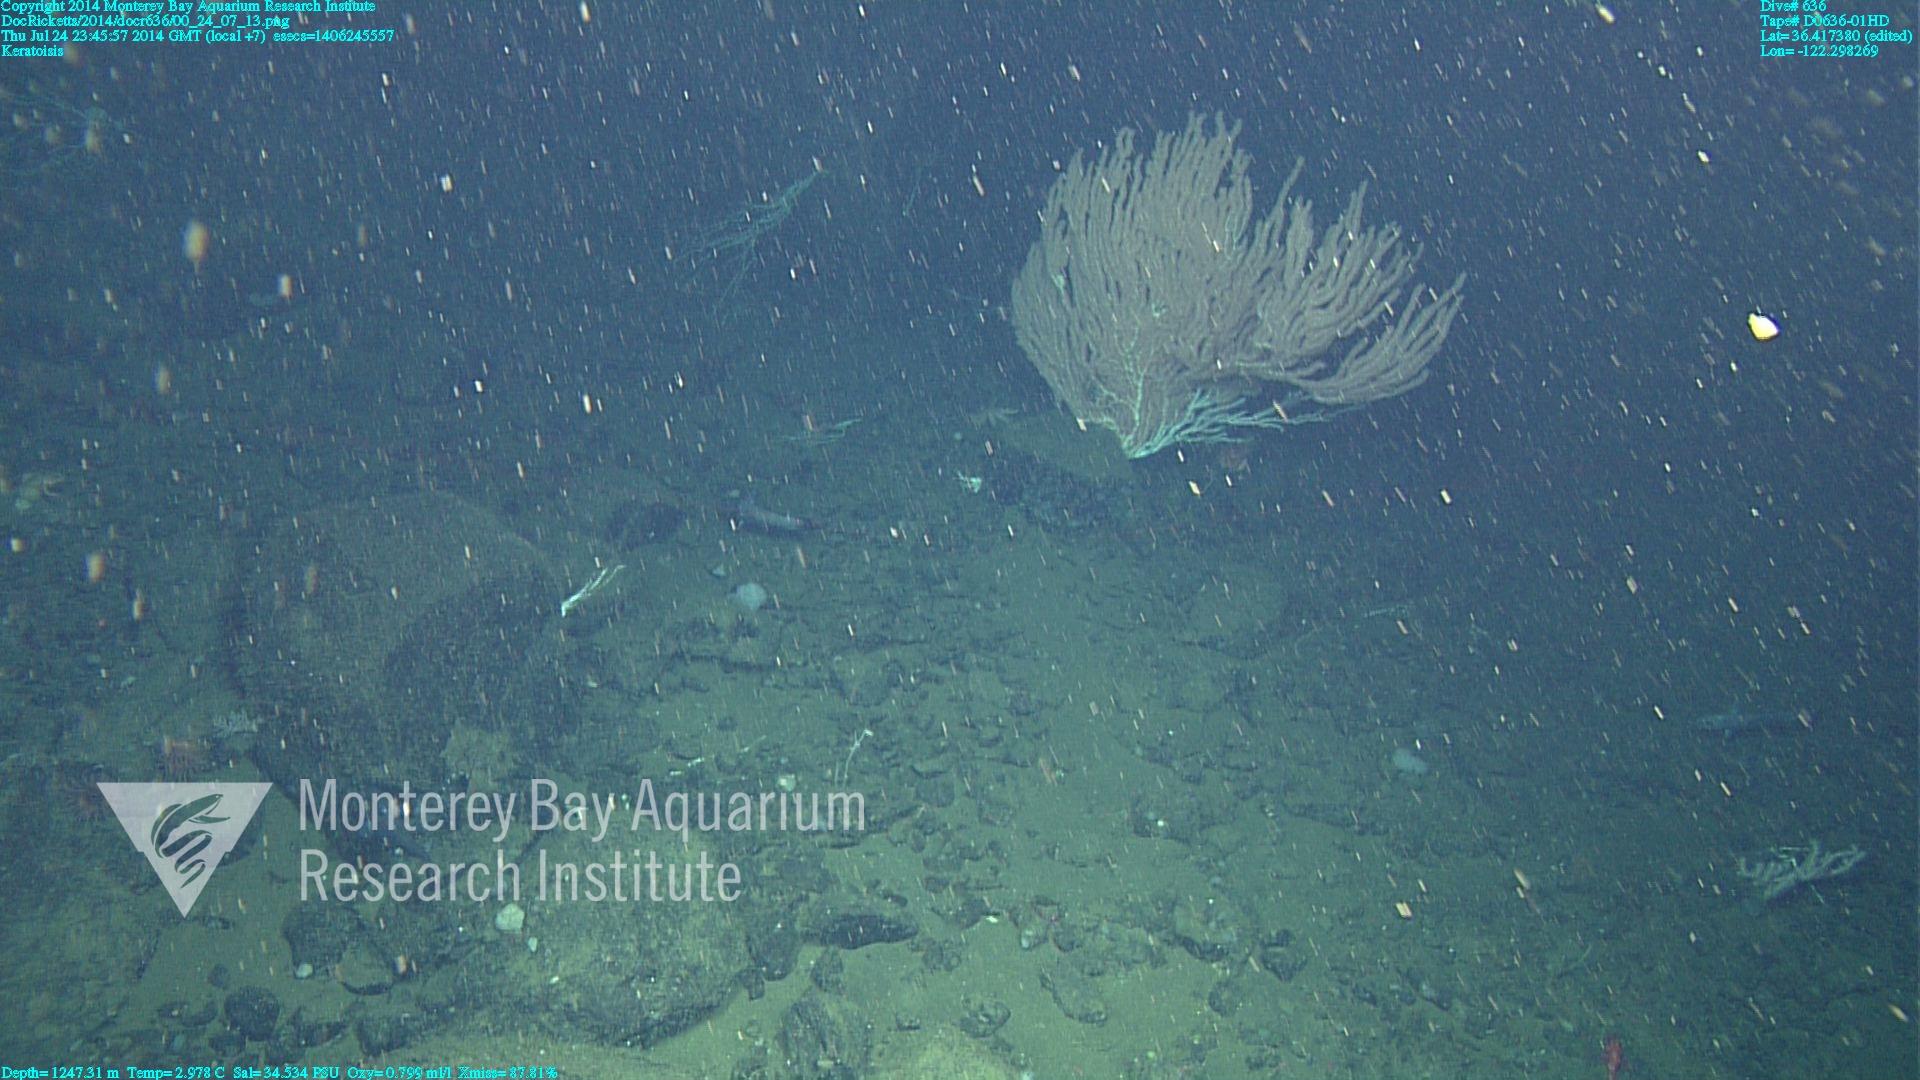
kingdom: Animalia
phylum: Cnidaria
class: Anthozoa
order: Scleralcyonacea
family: Keratoisididae
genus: Keratoisis
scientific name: Keratoisis
